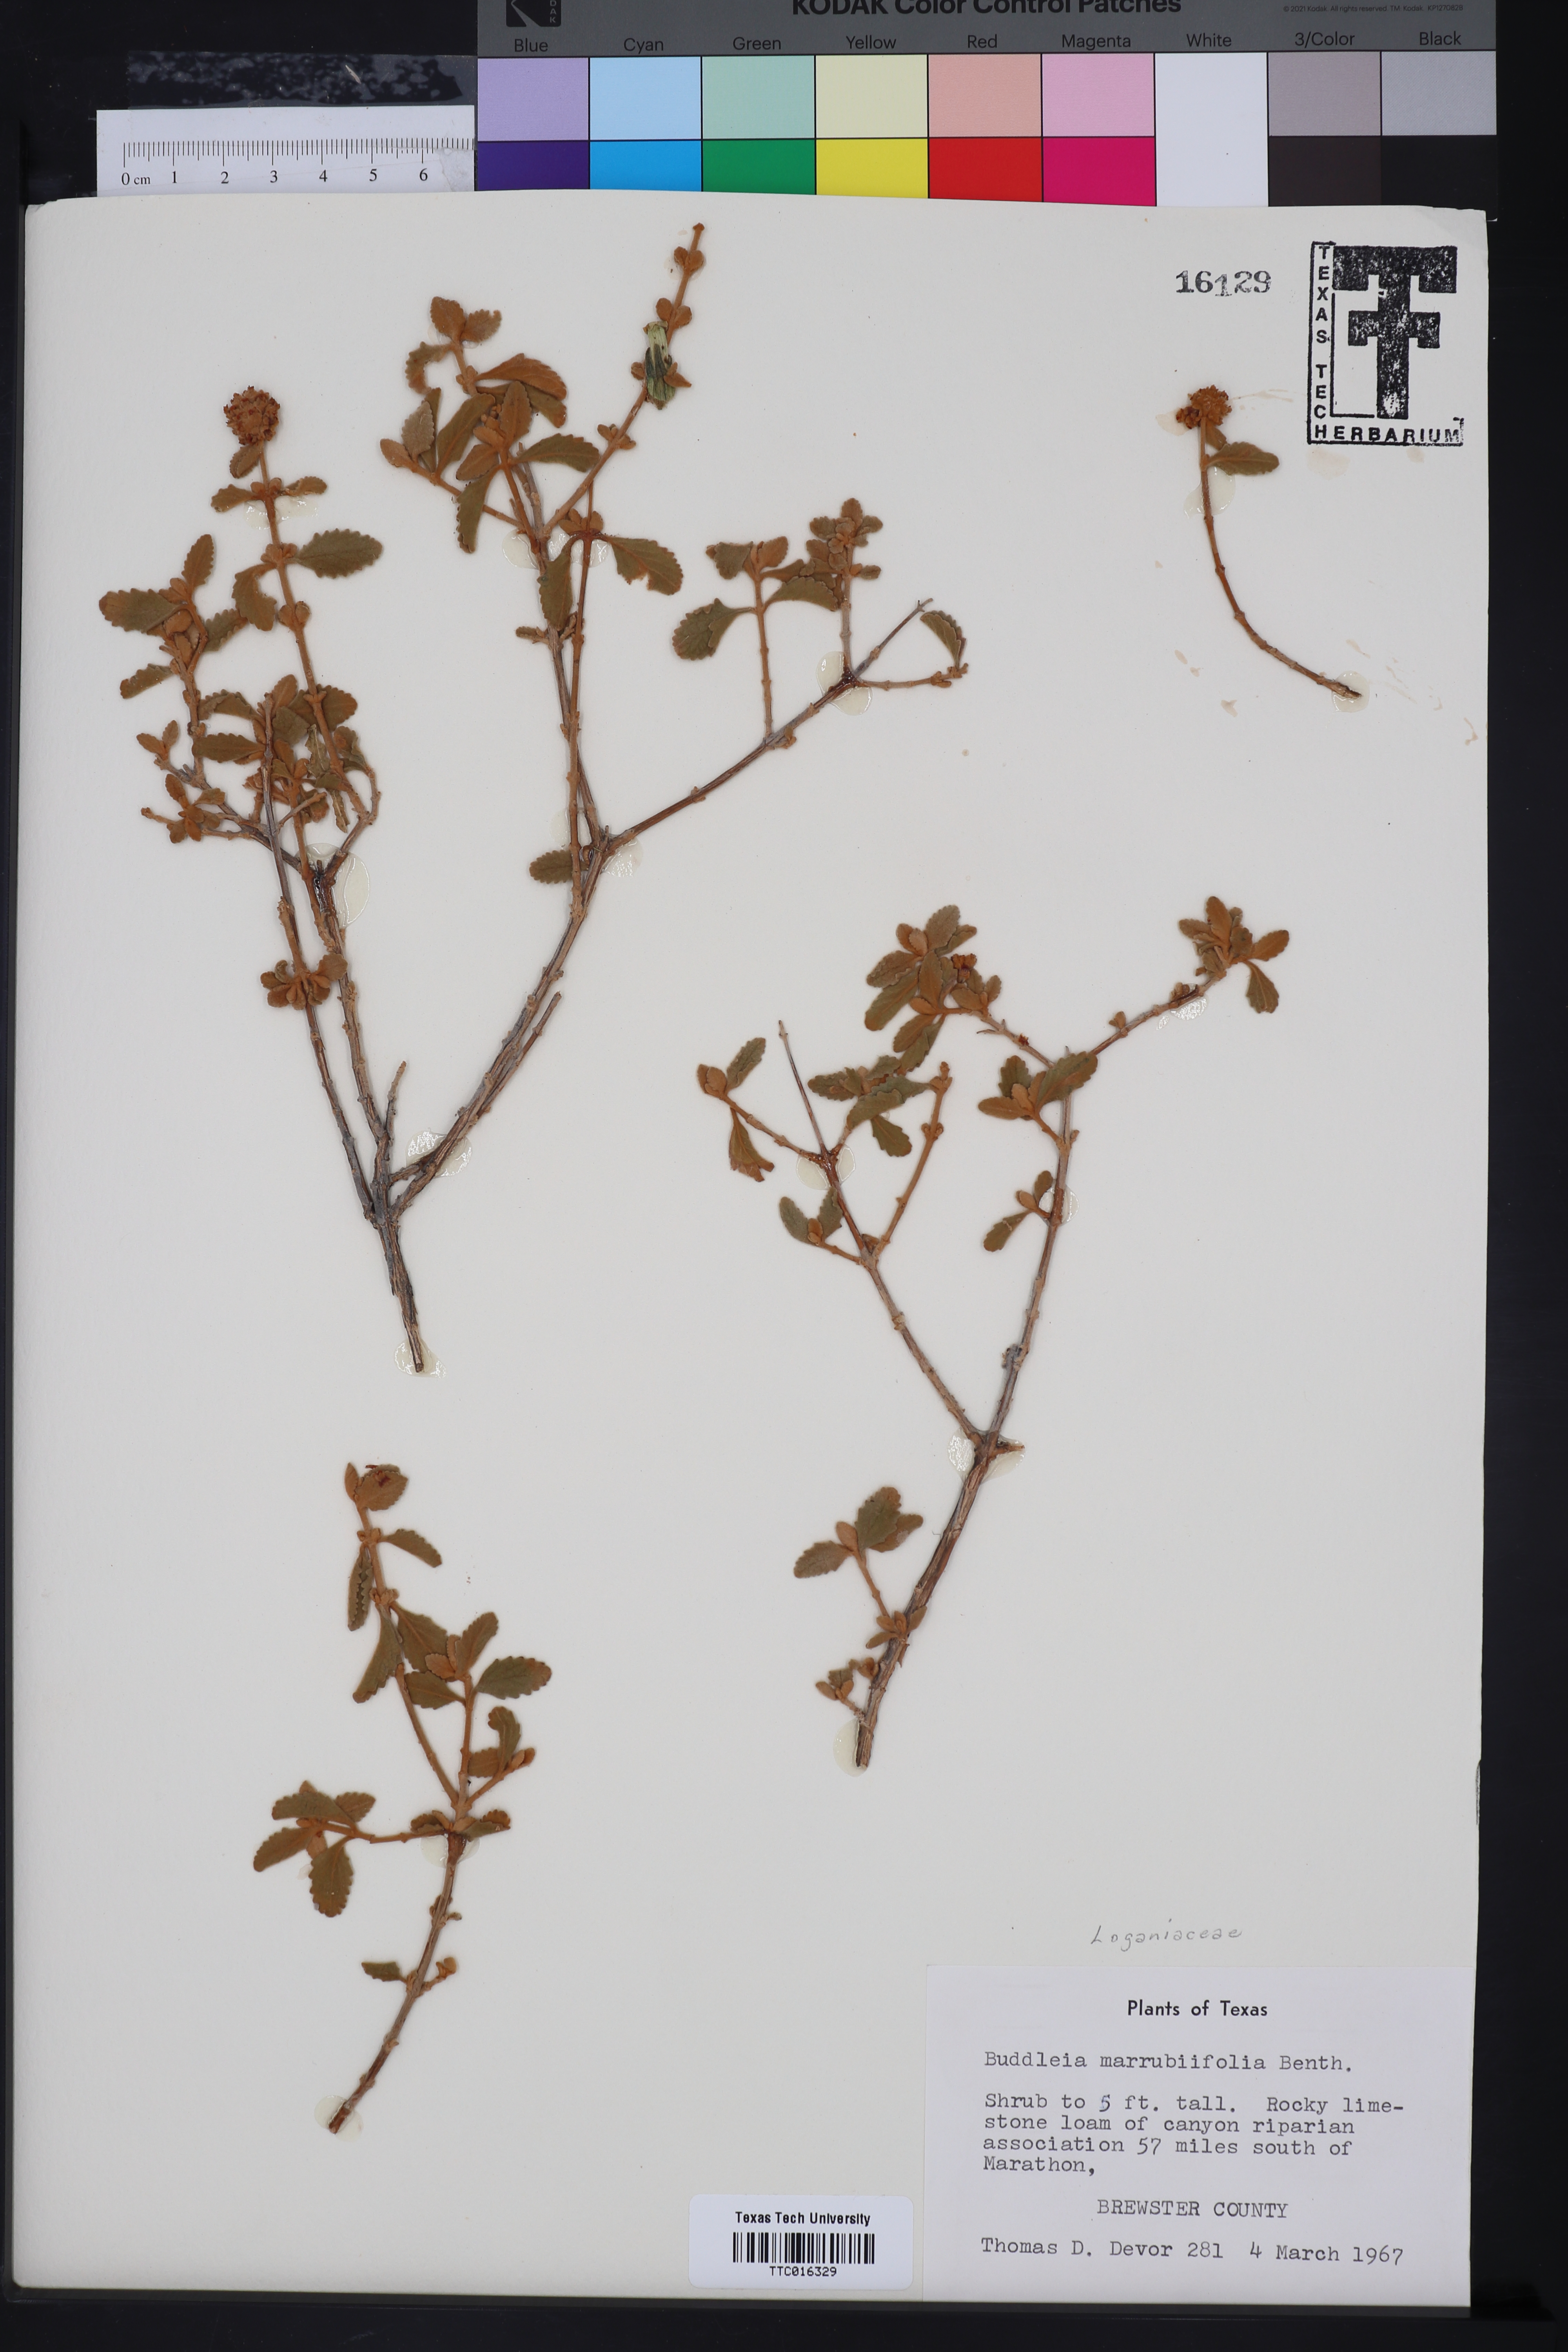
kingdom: Plantae
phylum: Tracheophyta
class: Magnoliopsida
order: Lamiales
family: Scrophulariaceae
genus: Buddleja
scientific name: Buddleja marrubiifolia
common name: Woolly butterfly-bush
